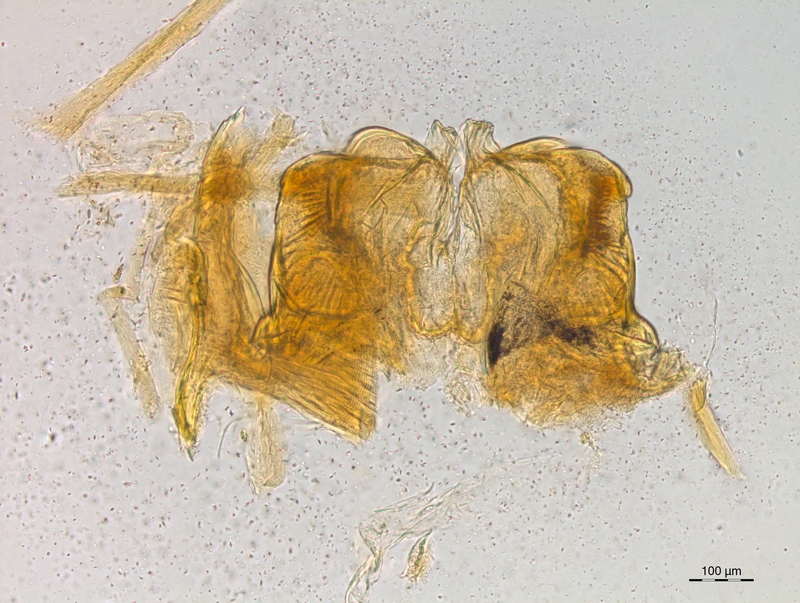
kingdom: Animalia
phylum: Arthropoda
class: Diplopoda
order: Chordeumatida
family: Craspedosomatidae
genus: Craspedosoma
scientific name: Craspedosoma taurinorum
